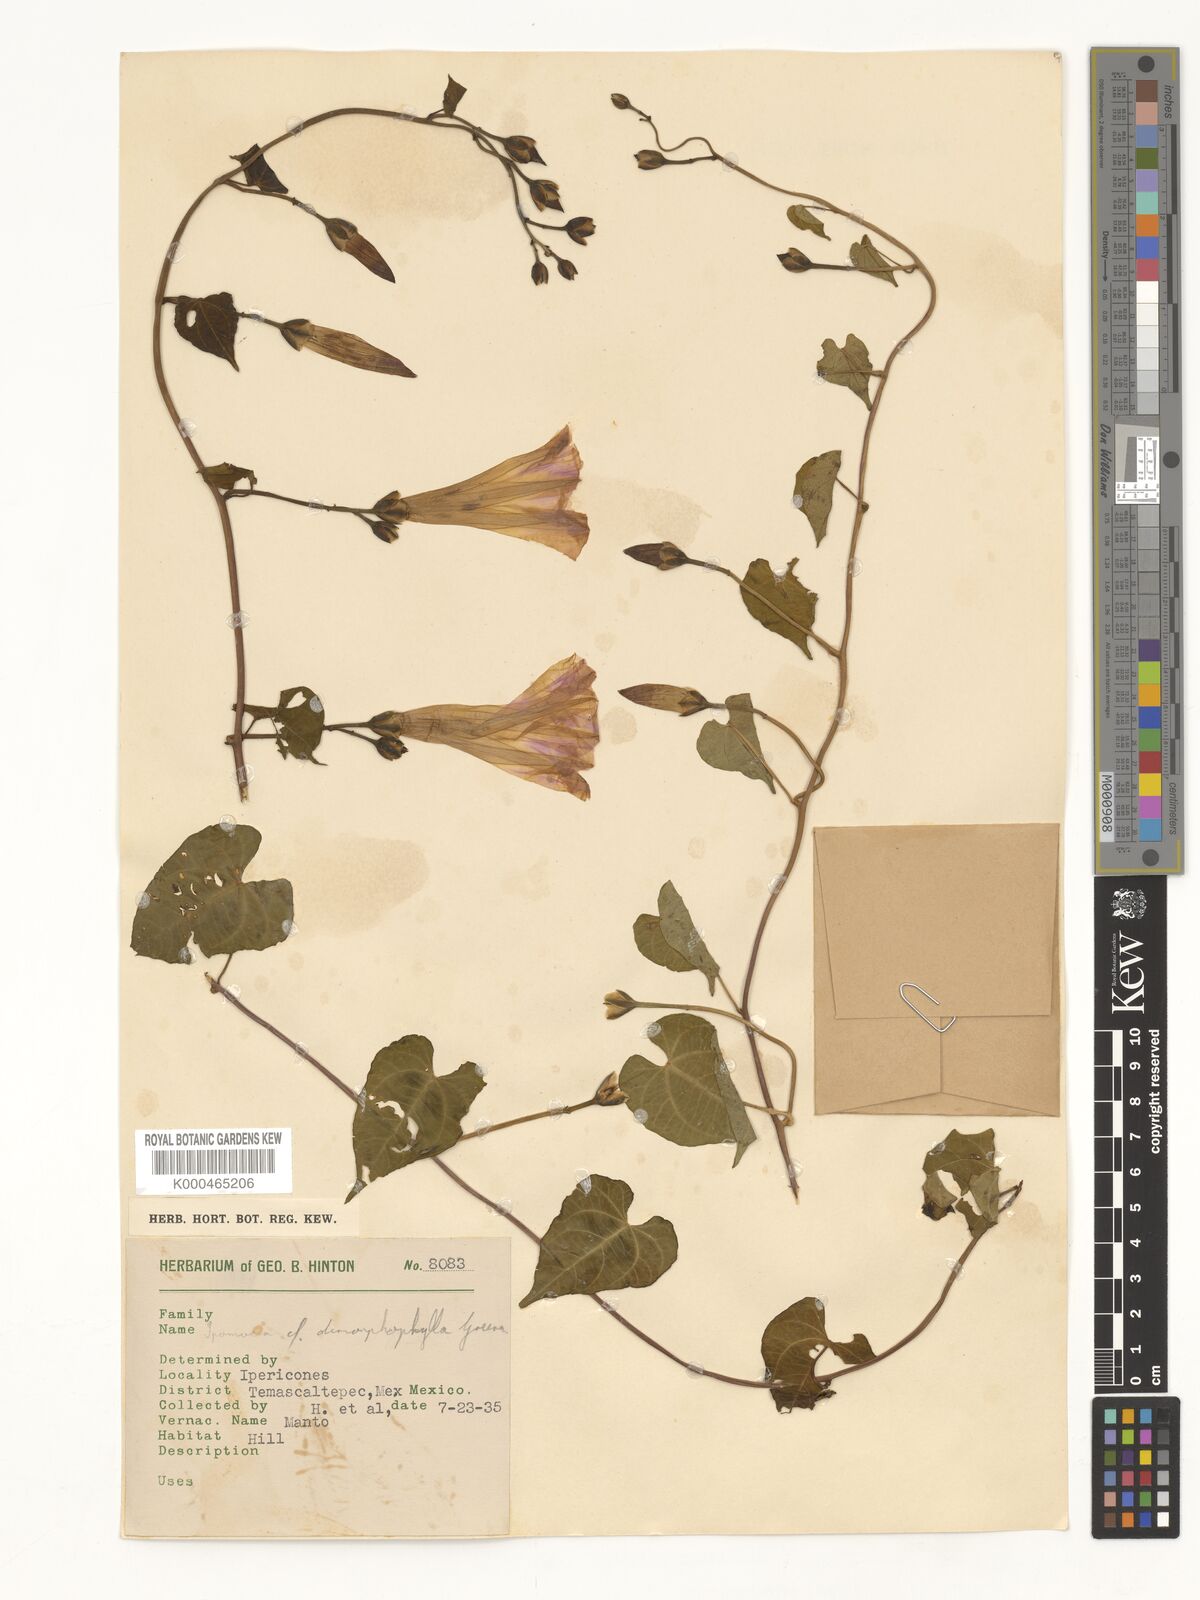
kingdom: Plantae
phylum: Tracheophyta
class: Magnoliopsida
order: Solanales
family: Convolvulaceae
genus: Ipomoea
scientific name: Ipomoea proxima
